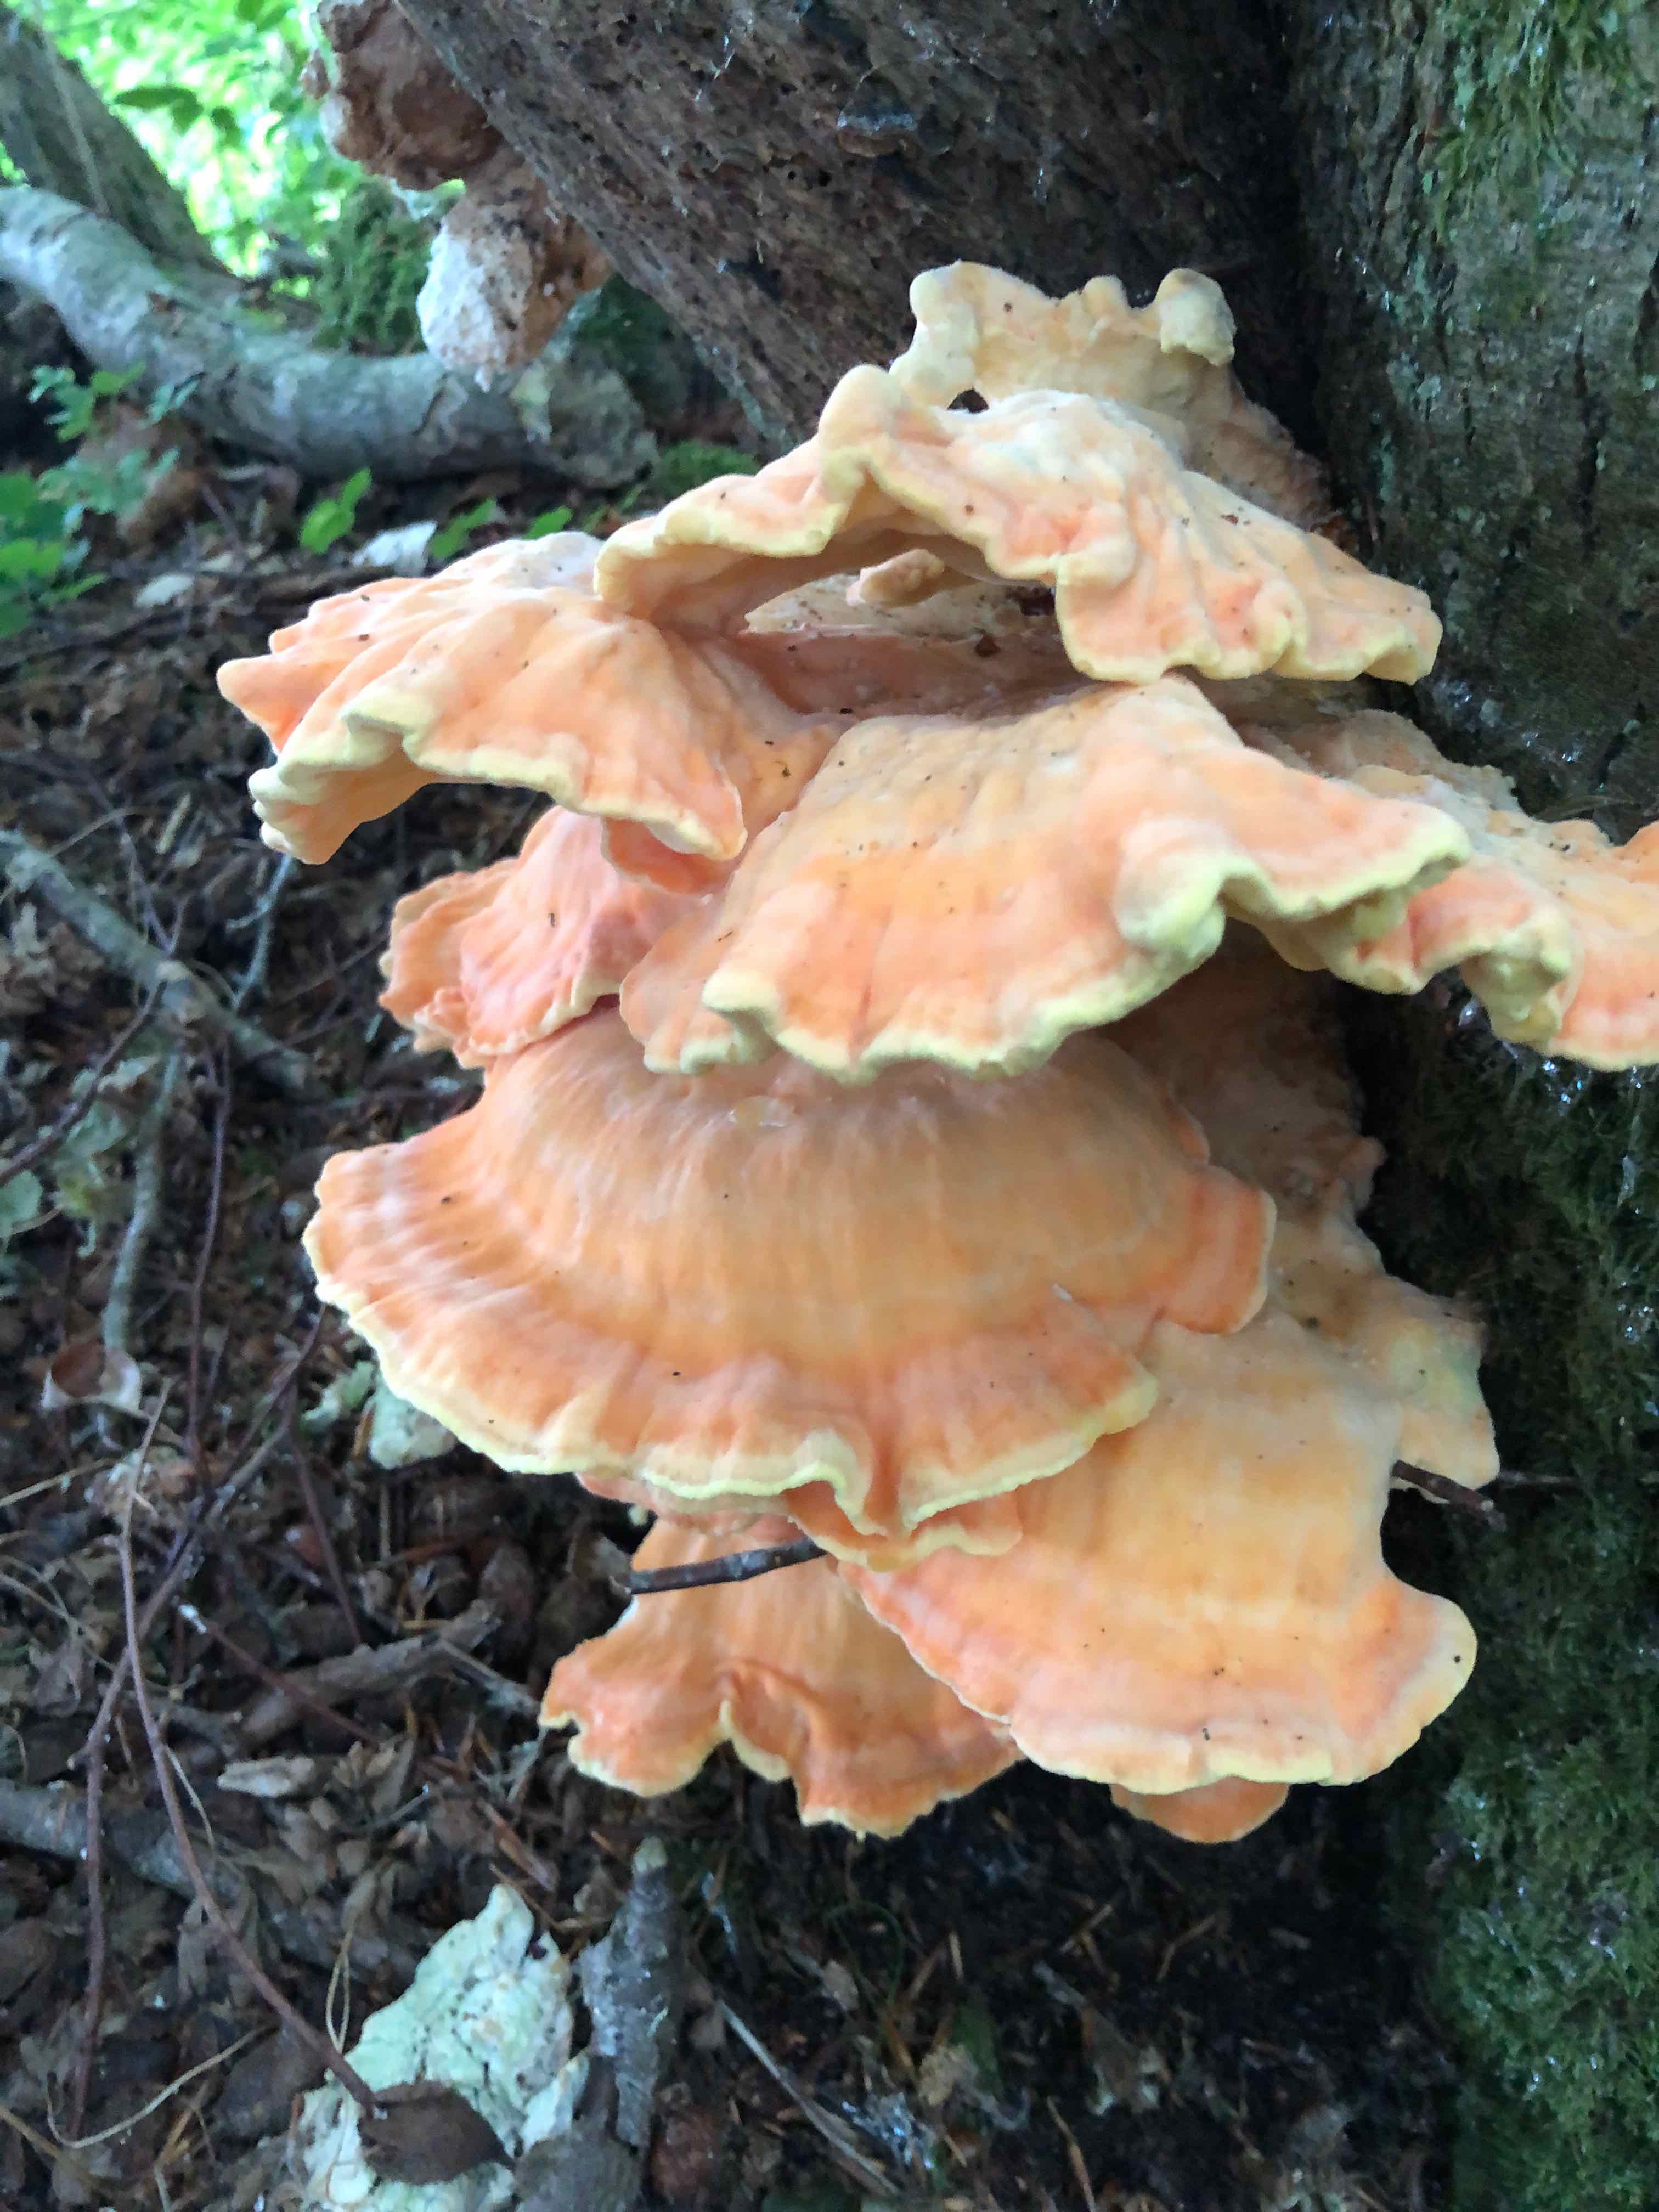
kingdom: Fungi
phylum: Basidiomycota
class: Agaricomycetes
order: Polyporales
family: Laetiporaceae
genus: Laetiporus
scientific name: Laetiporus sulphureus
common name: svovlporesvamp
